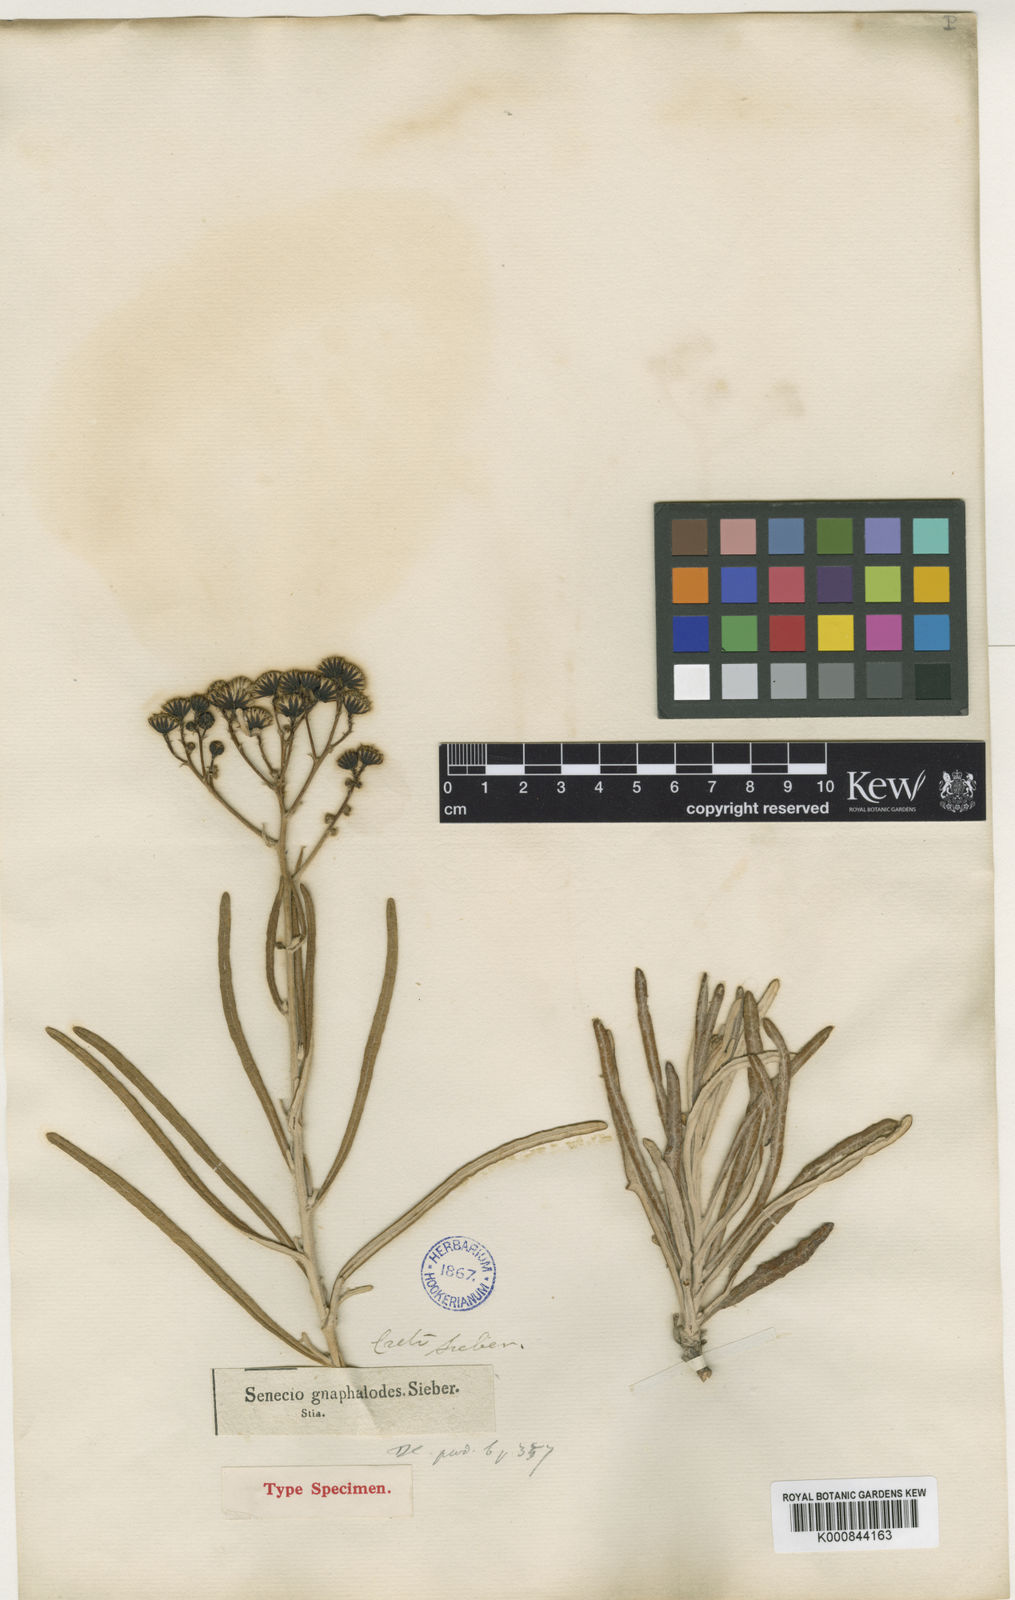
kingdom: Plantae
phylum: Tracheophyta
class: Magnoliopsida
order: Asterales
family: Asteraceae
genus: Jacobaea
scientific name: Jacobaea gnaphalioides
